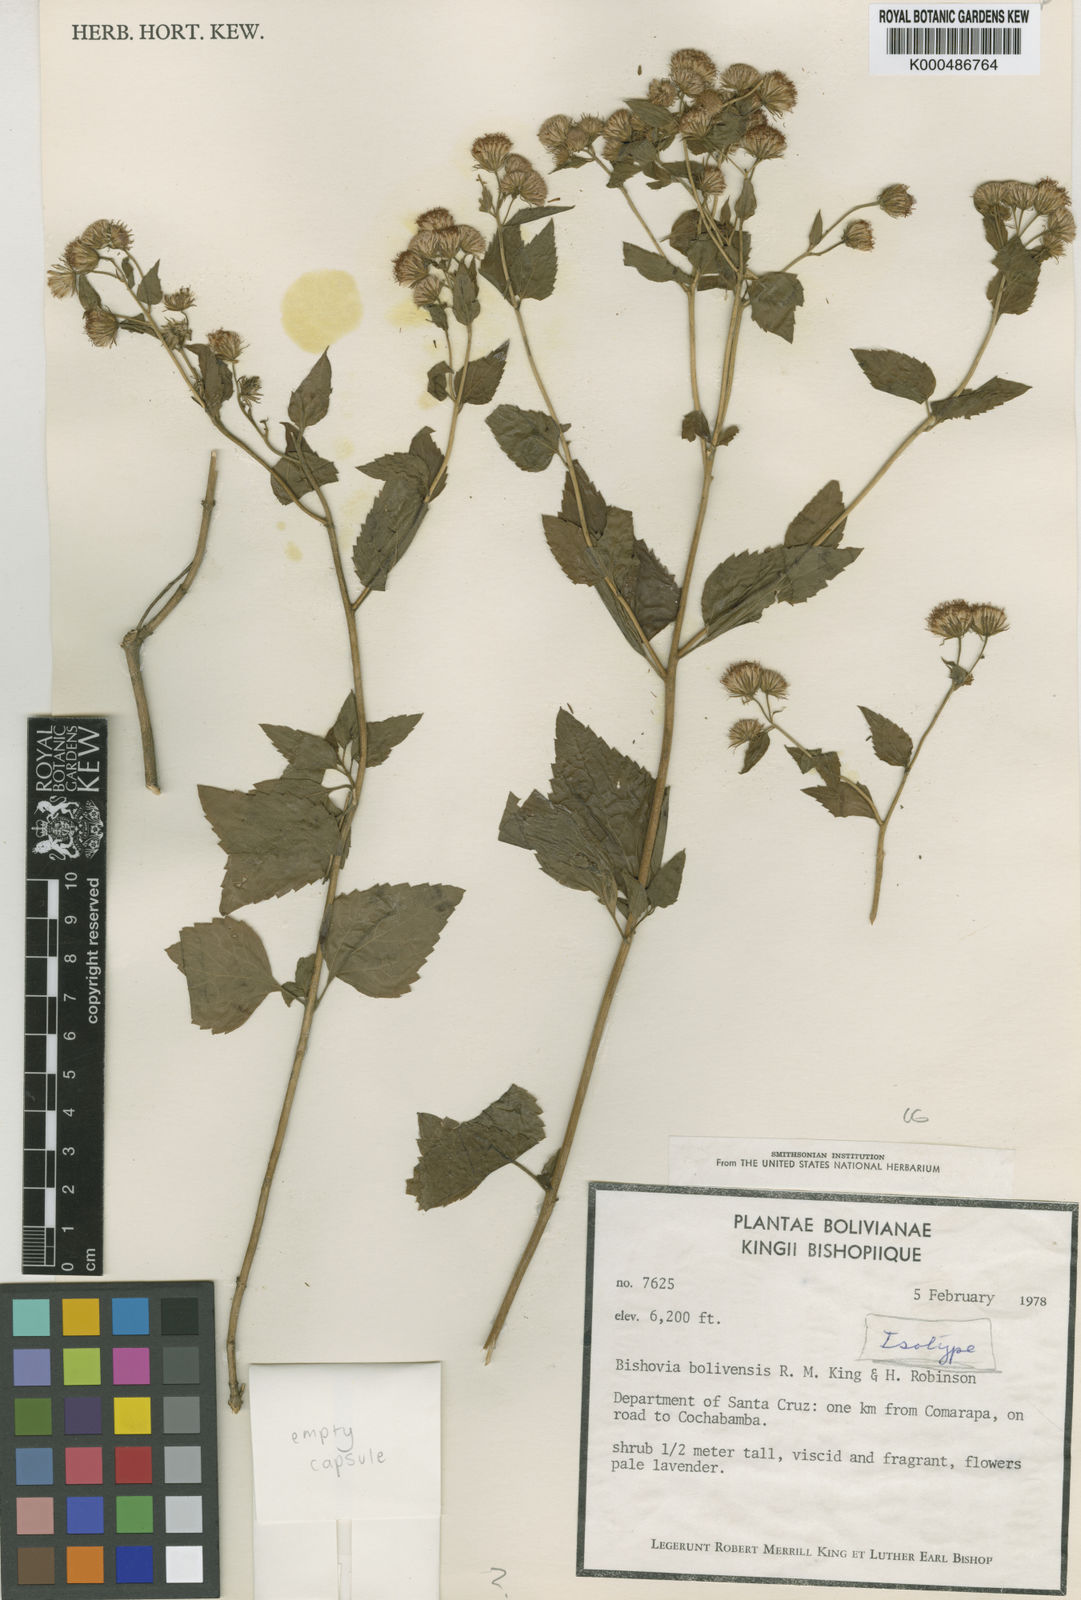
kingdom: Plantae
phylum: Tracheophyta
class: Magnoliopsida
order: Asterales
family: Asteraceae
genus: Bishovia
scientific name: Bishovia boliviensis
